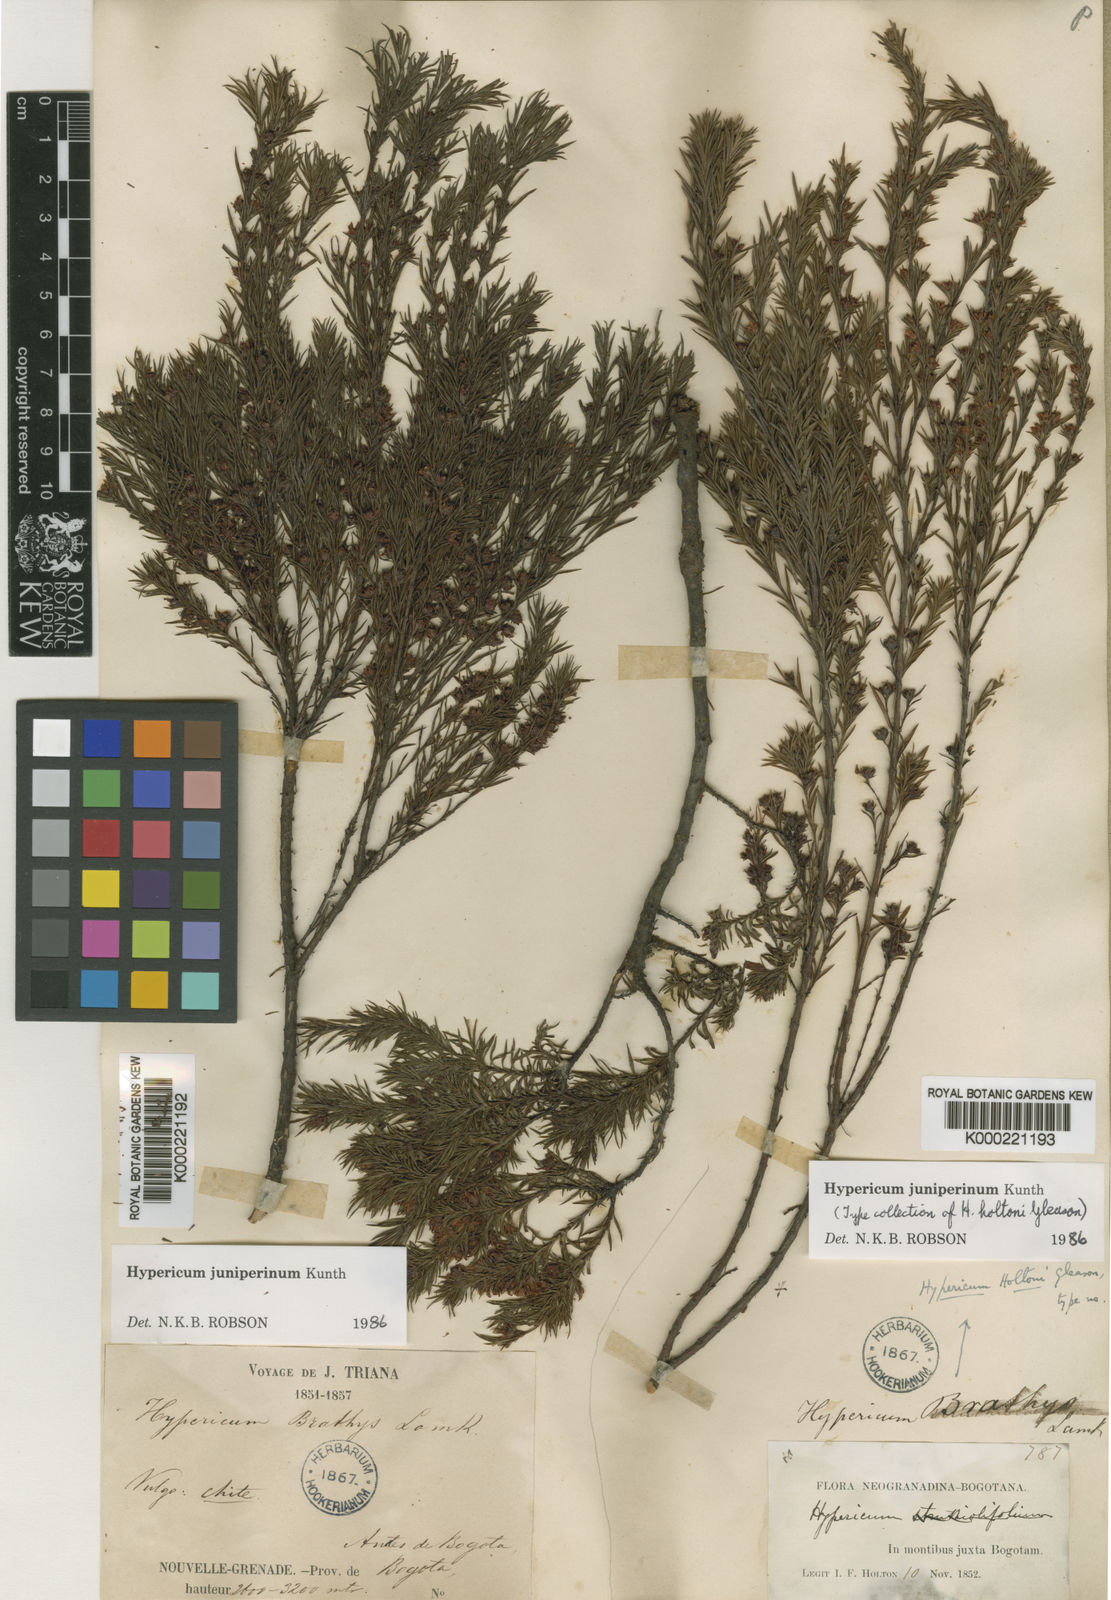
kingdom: Plantae
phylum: Tracheophyta
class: Magnoliopsida
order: Malpighiales
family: Hypericaceae
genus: Hypericum
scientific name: Hypericum juniperinum
